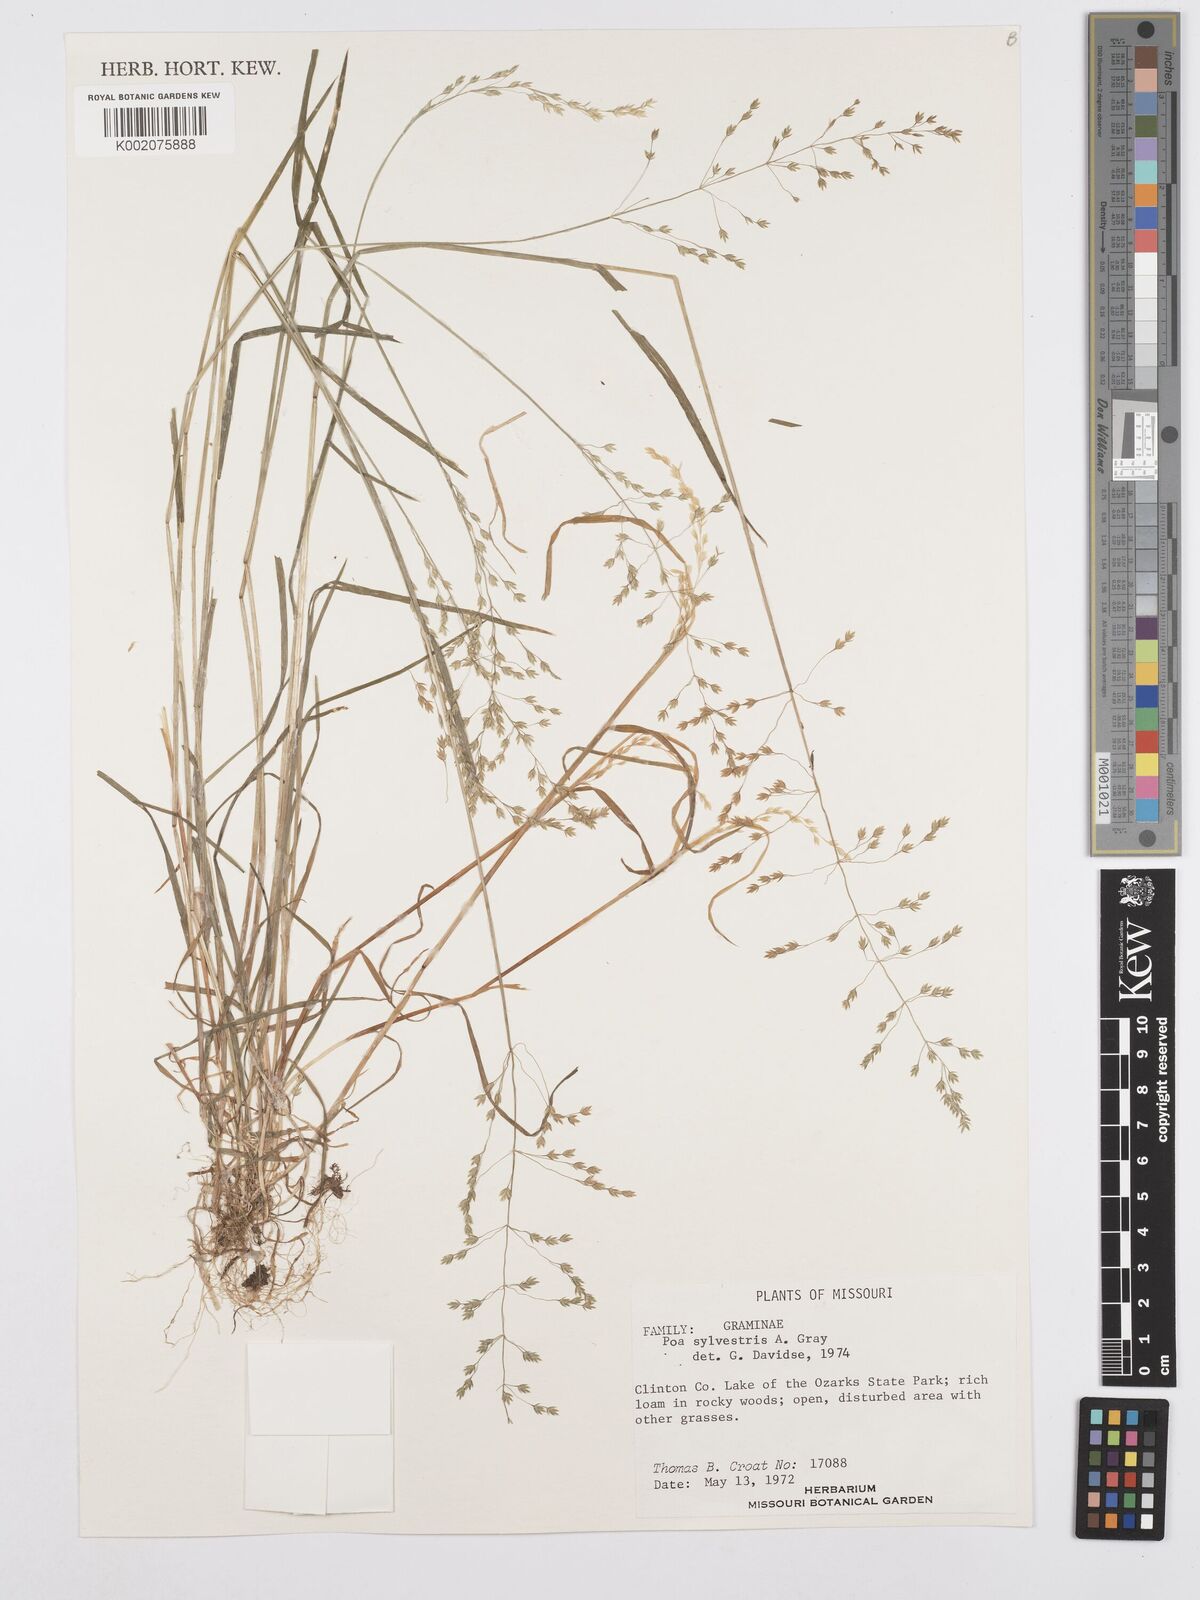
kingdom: Plantae
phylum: Tracheophyta
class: Liliopsida
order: Poales
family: Poaceae
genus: Poa
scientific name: Poa sylvestris
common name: North american woodland bluegrass
